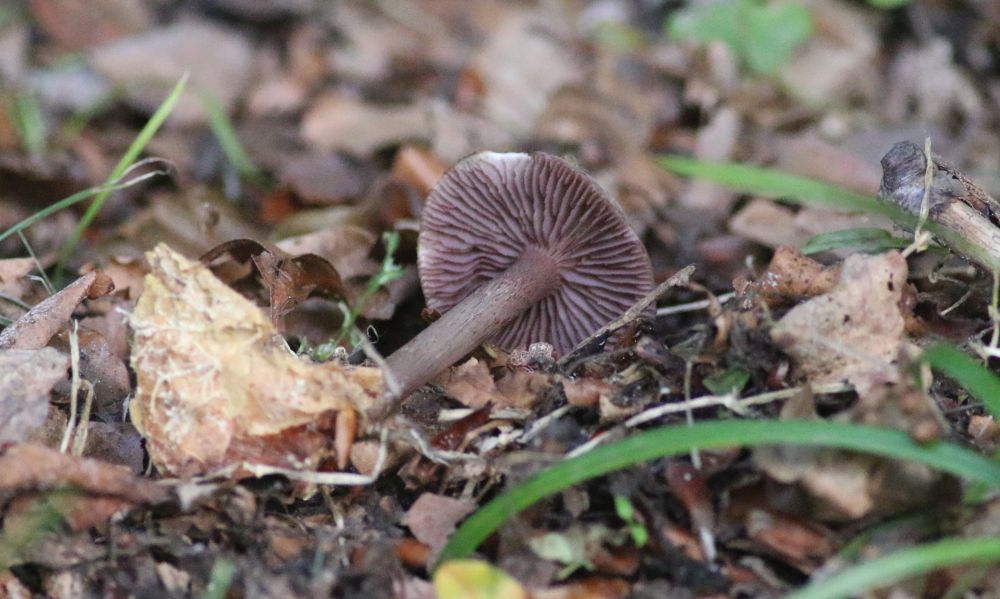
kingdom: Fungi
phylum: Basidiomycota
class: Agaricomycetes
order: Agaricales
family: Mycenaceae
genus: Mycena
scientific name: Mycena pelianthina
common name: mørkbladet huesvamp
